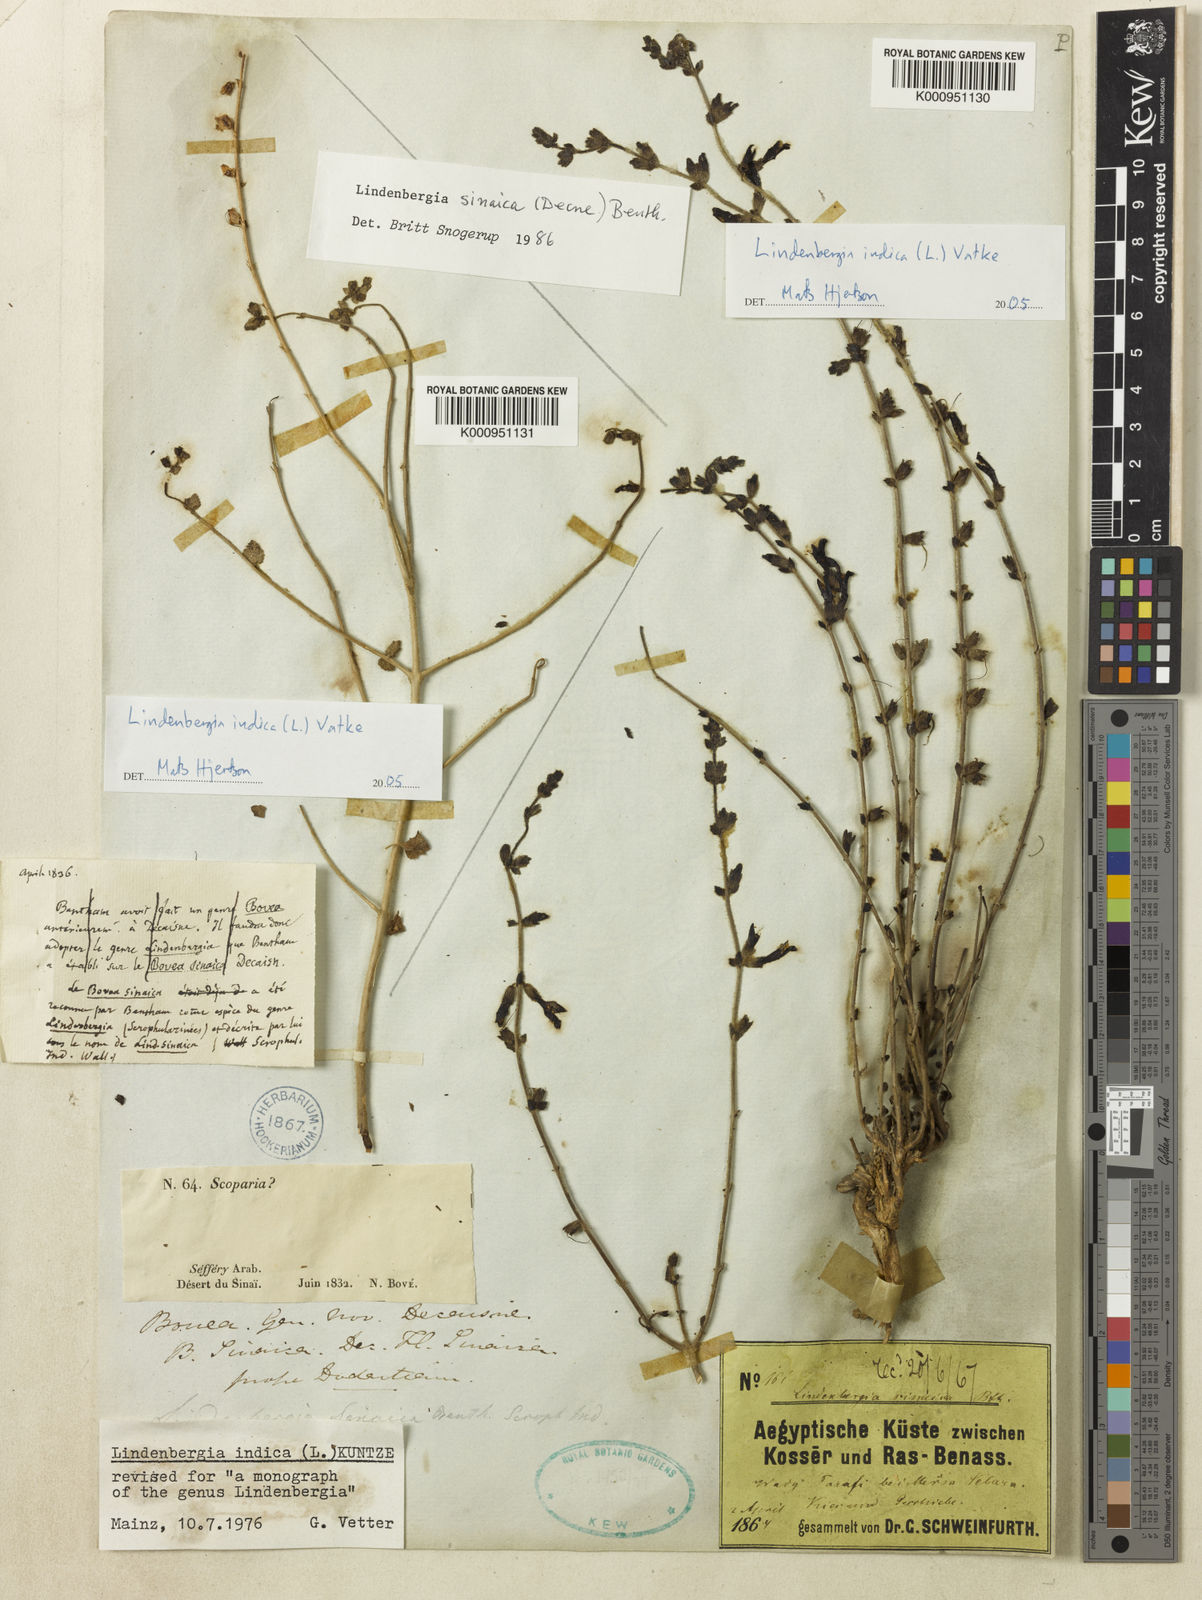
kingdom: Plantae
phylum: Tracheophyta
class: Magnoliopsida
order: Lamiales
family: Orobanchaceae
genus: Lindenbergia
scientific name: Lindenbergia indica
